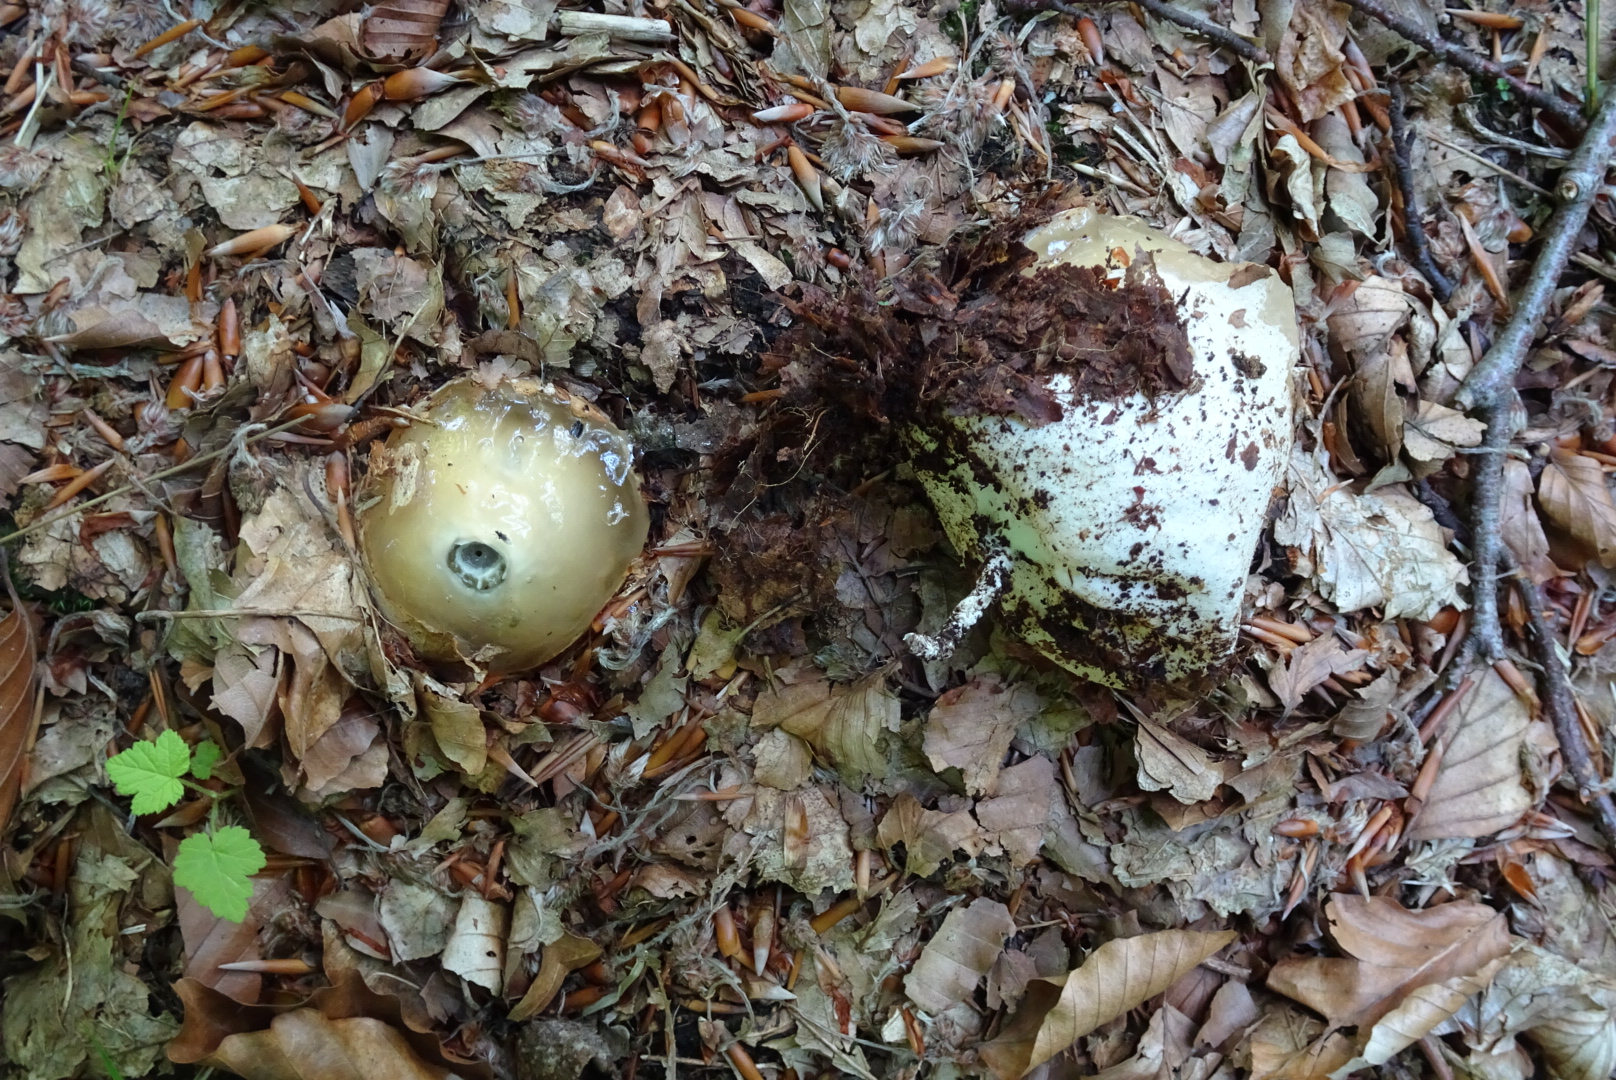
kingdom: Fungi
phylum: Basidiomycota
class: Agaricomycetes
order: Phallales
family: Phallaceae
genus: Phallus
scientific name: Phallus impudicus
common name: almindelig stinksvamp
